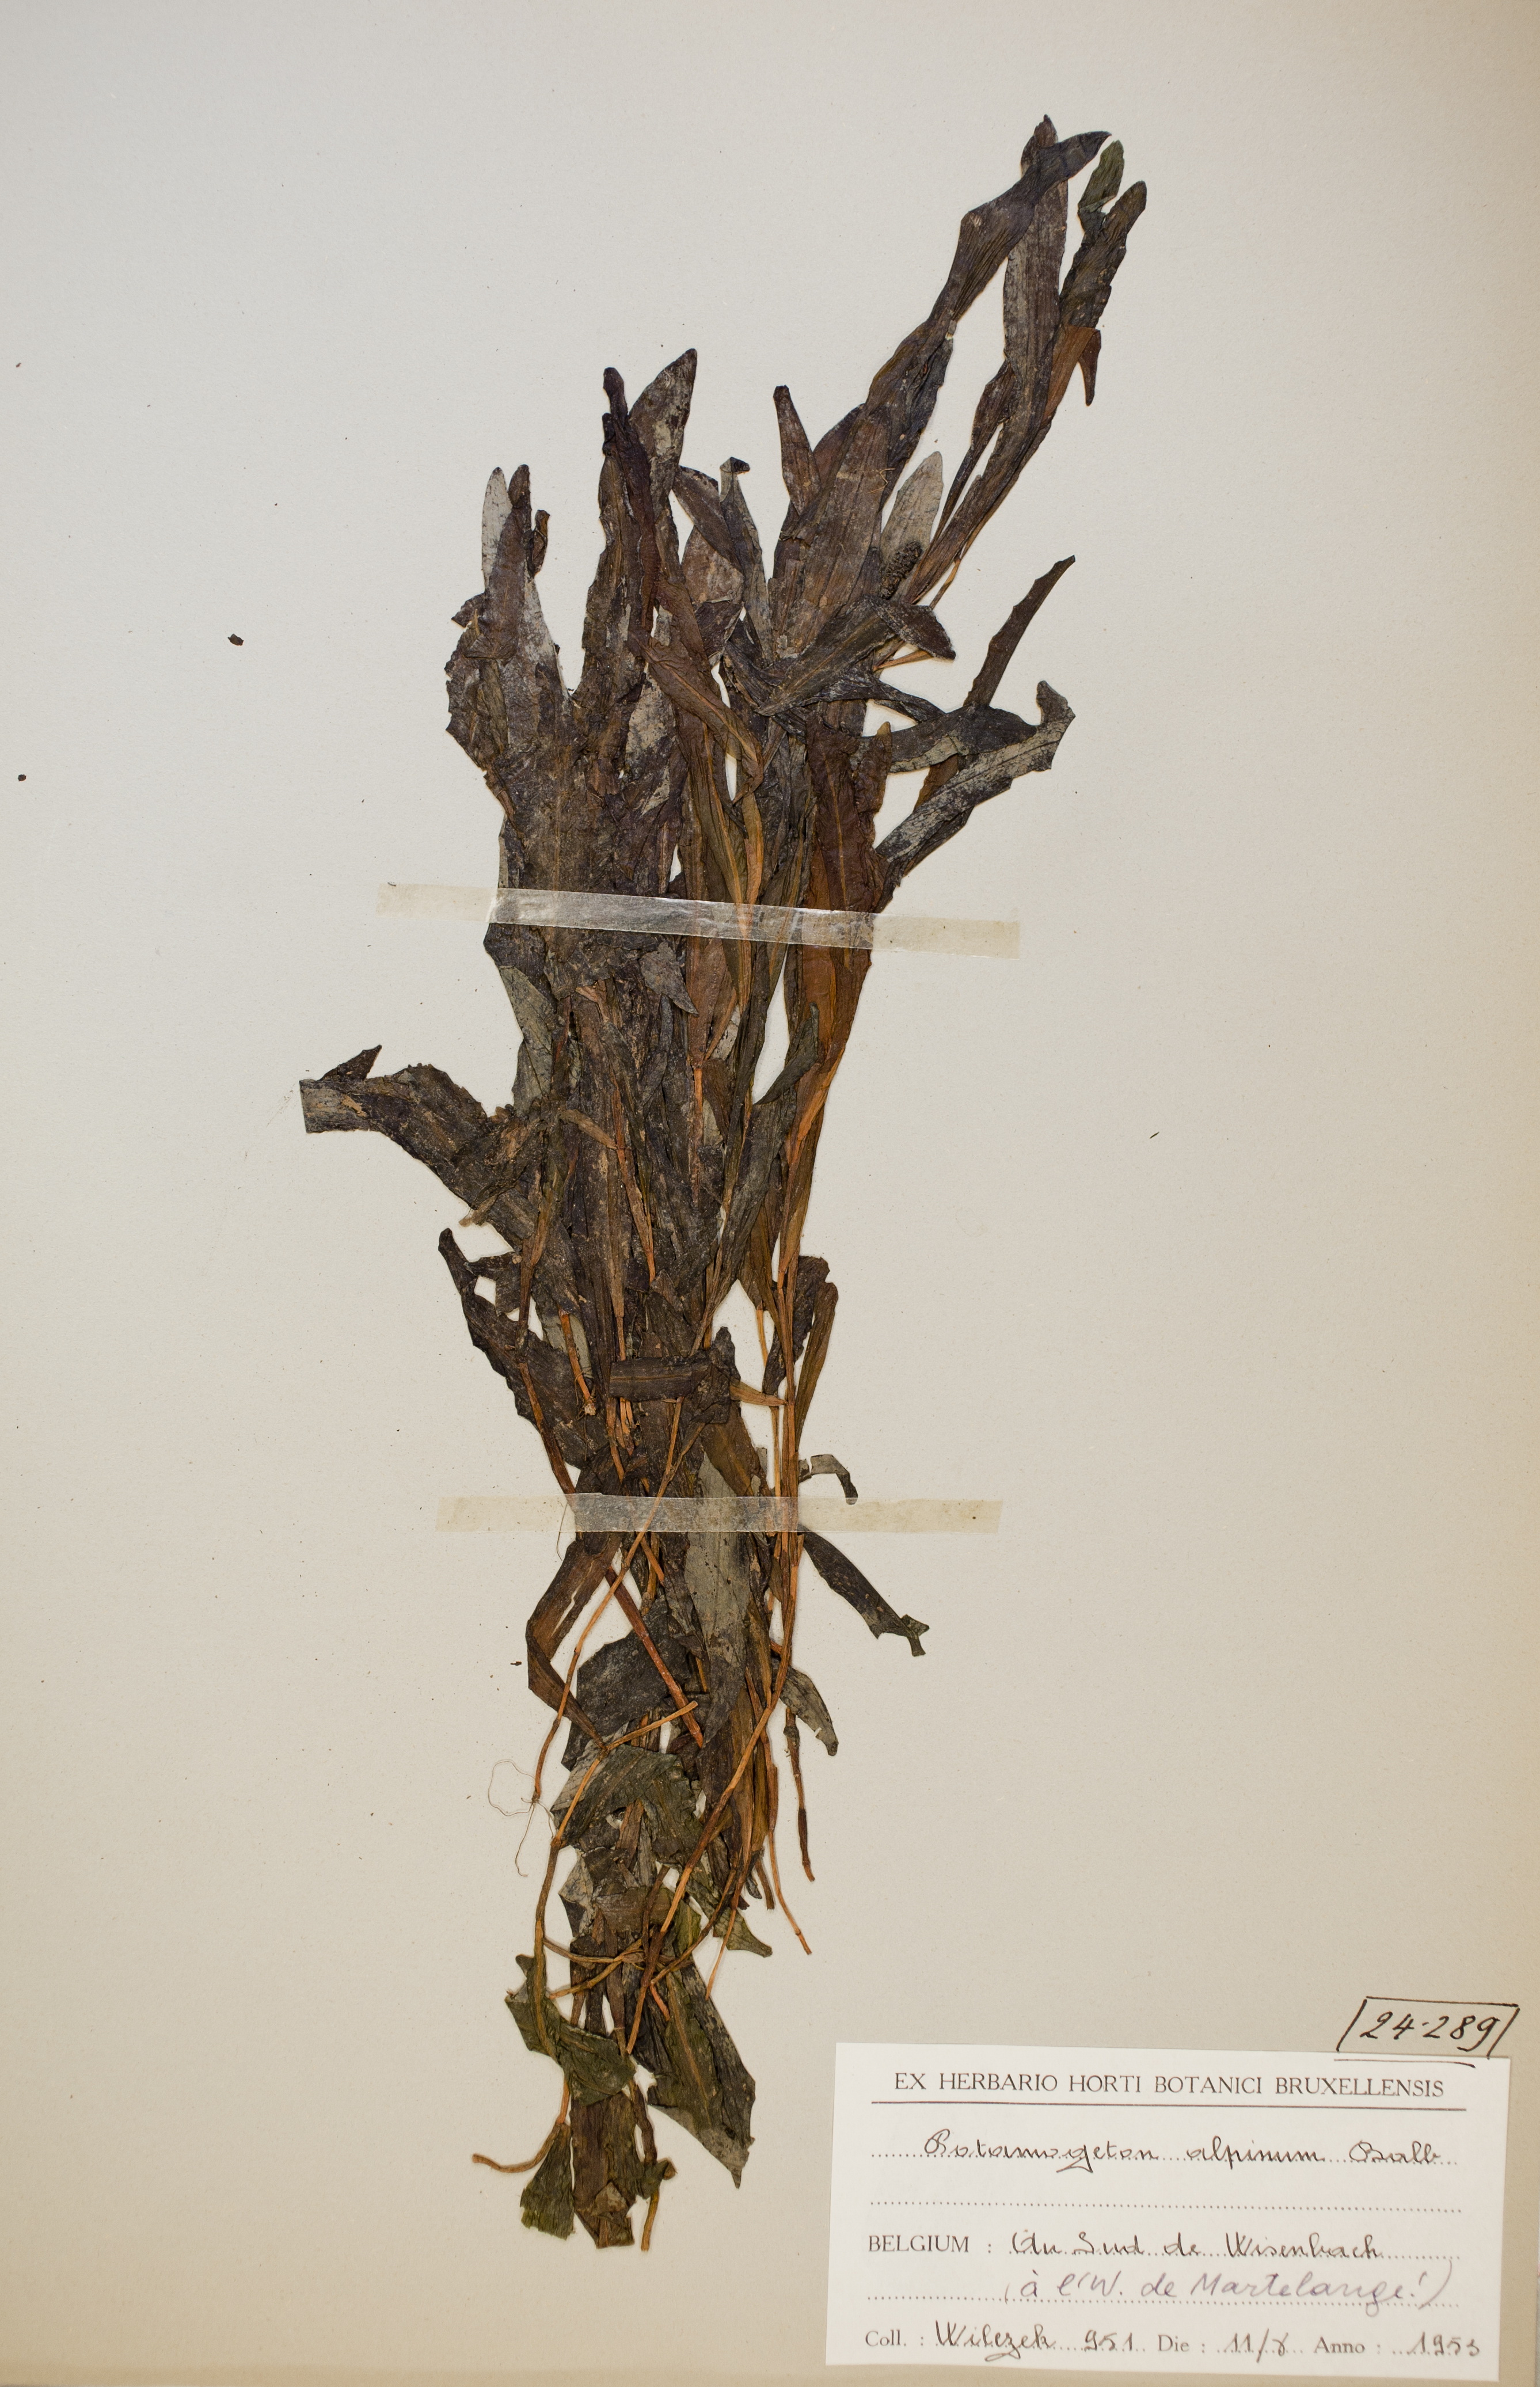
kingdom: Plantae
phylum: Tracheophyta
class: Liliopsida
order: Alismatales
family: Potamogetonaceae
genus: Potamogeton
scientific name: Potamogeton alpinus
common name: Red pondweed
